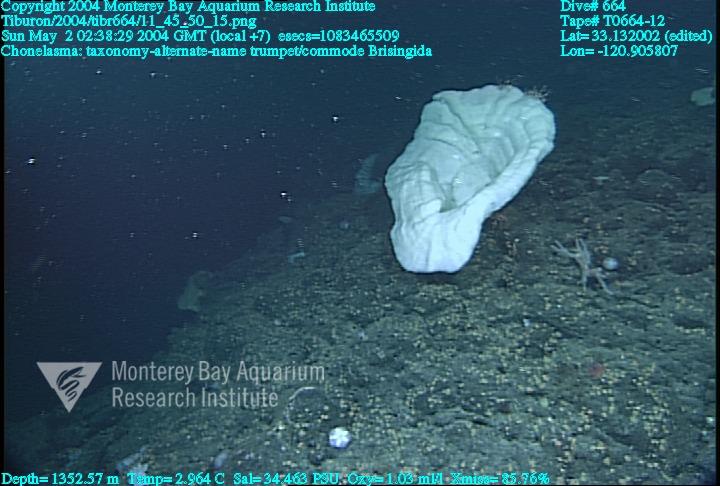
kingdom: Animalia
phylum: Porifera
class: Hexactinellida
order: Sceptrulophora
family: Euretidae
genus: Chonelasma
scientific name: Chonelasma
